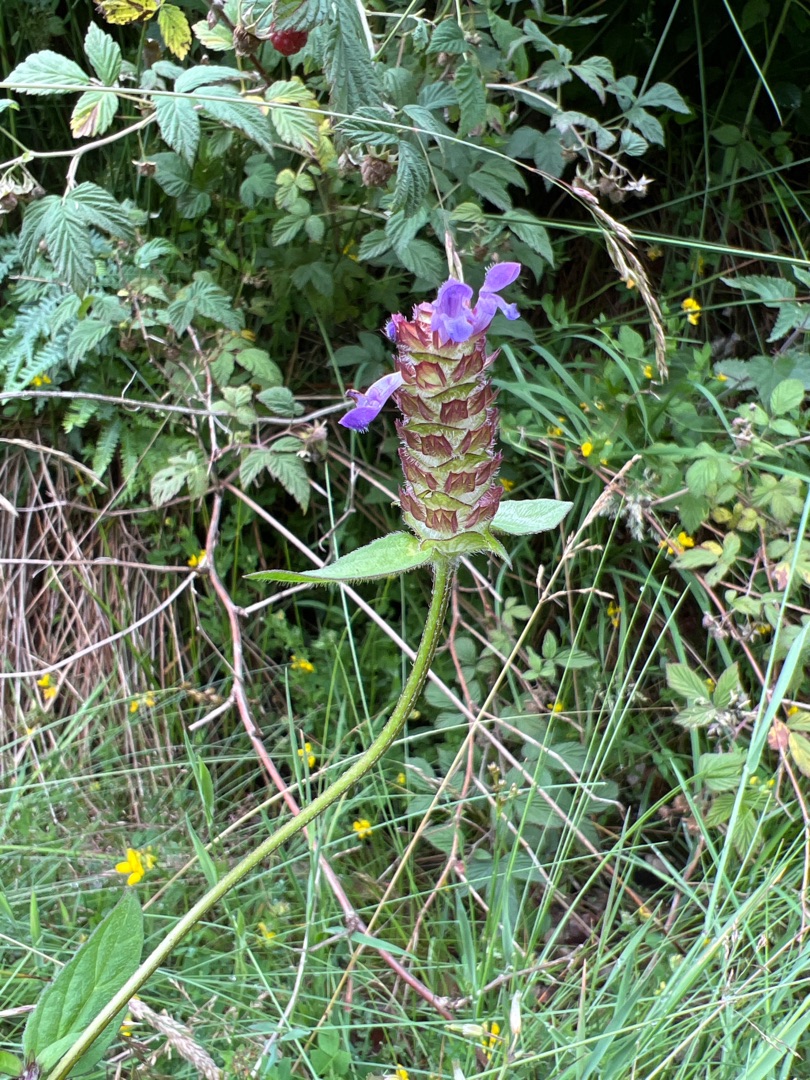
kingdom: Plantae
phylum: Tracheophyta
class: Magnoliopsida
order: Lamiales
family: Lamiaceae
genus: Prunella
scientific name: Prunella vulgaris
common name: Almindelig brunelle
